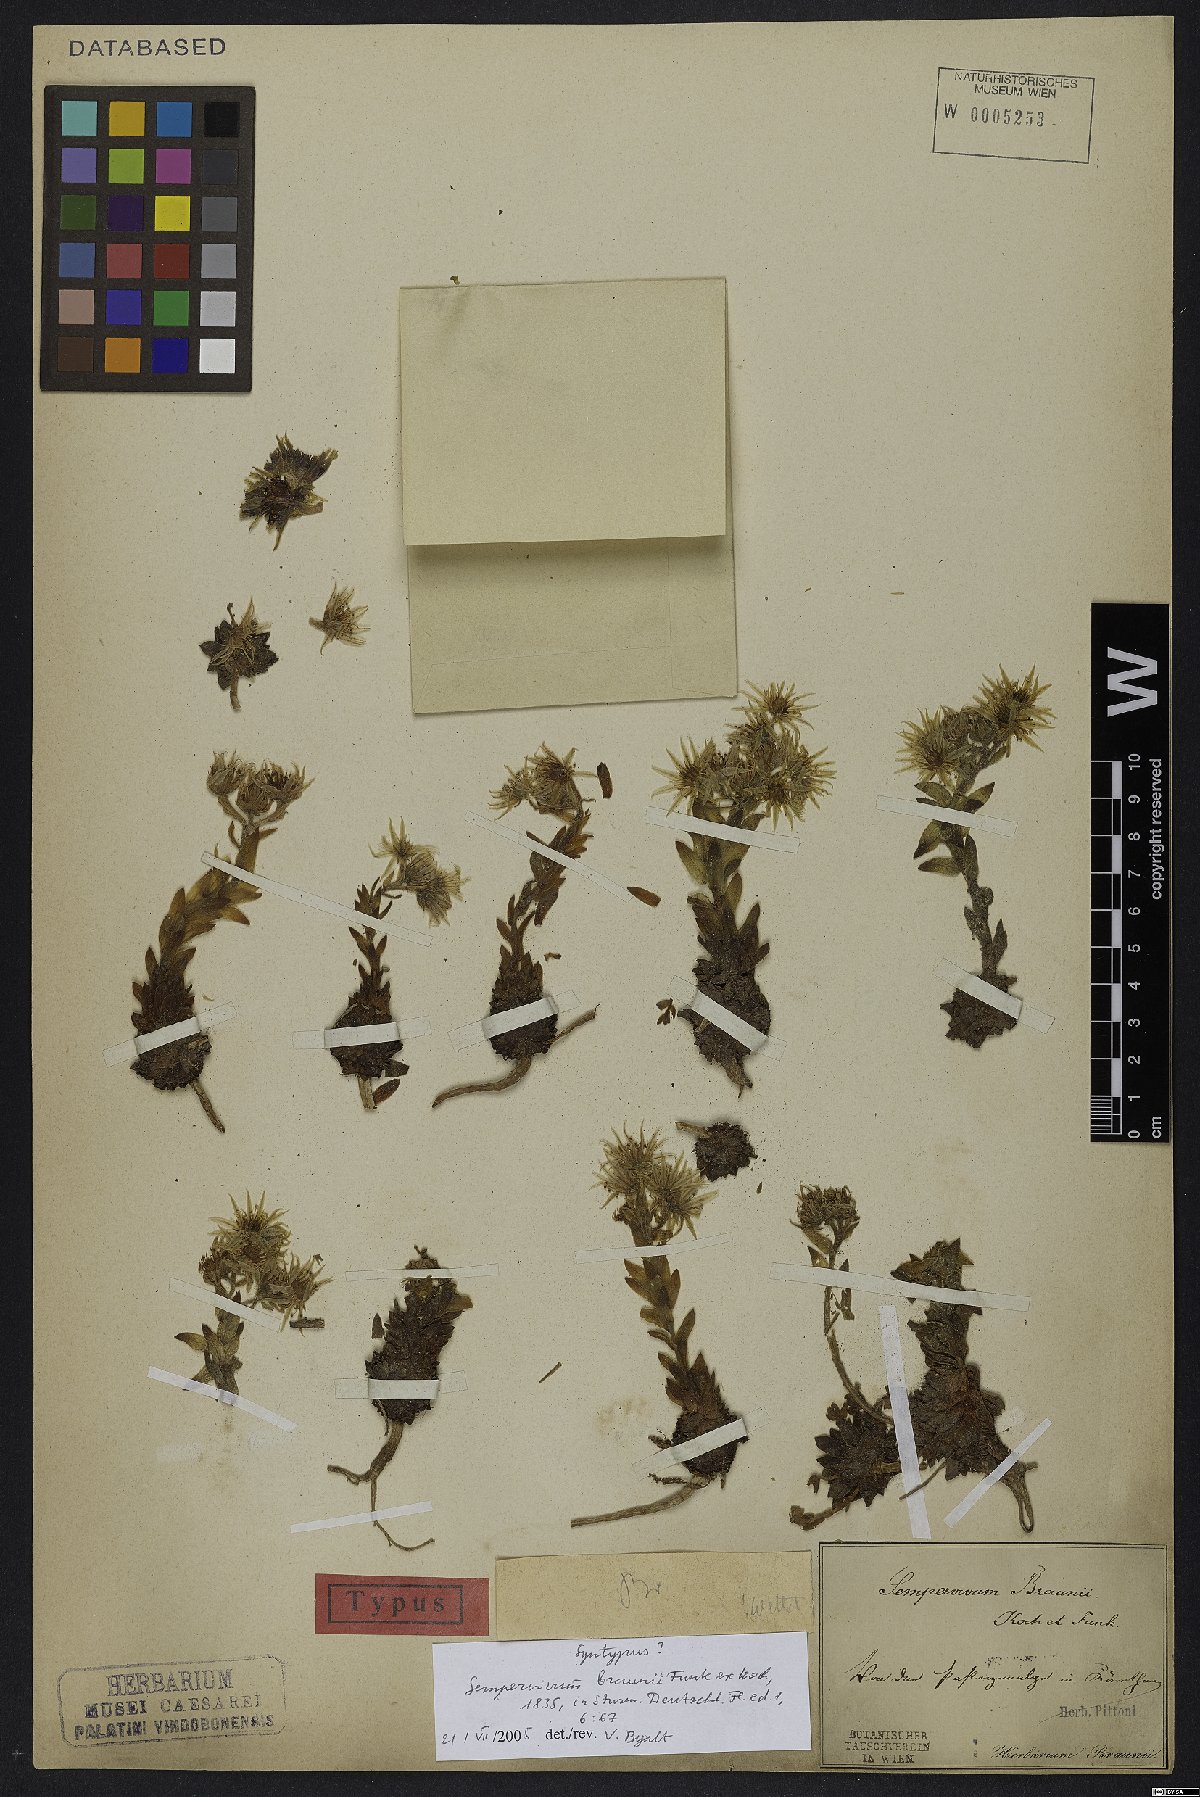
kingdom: Plantae
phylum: Tracheophyta
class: Magnoliopsida
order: Saxifragales
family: Crassulaceae
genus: Sempervivum
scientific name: Sempervivum montanum
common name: Mountain house-leek
